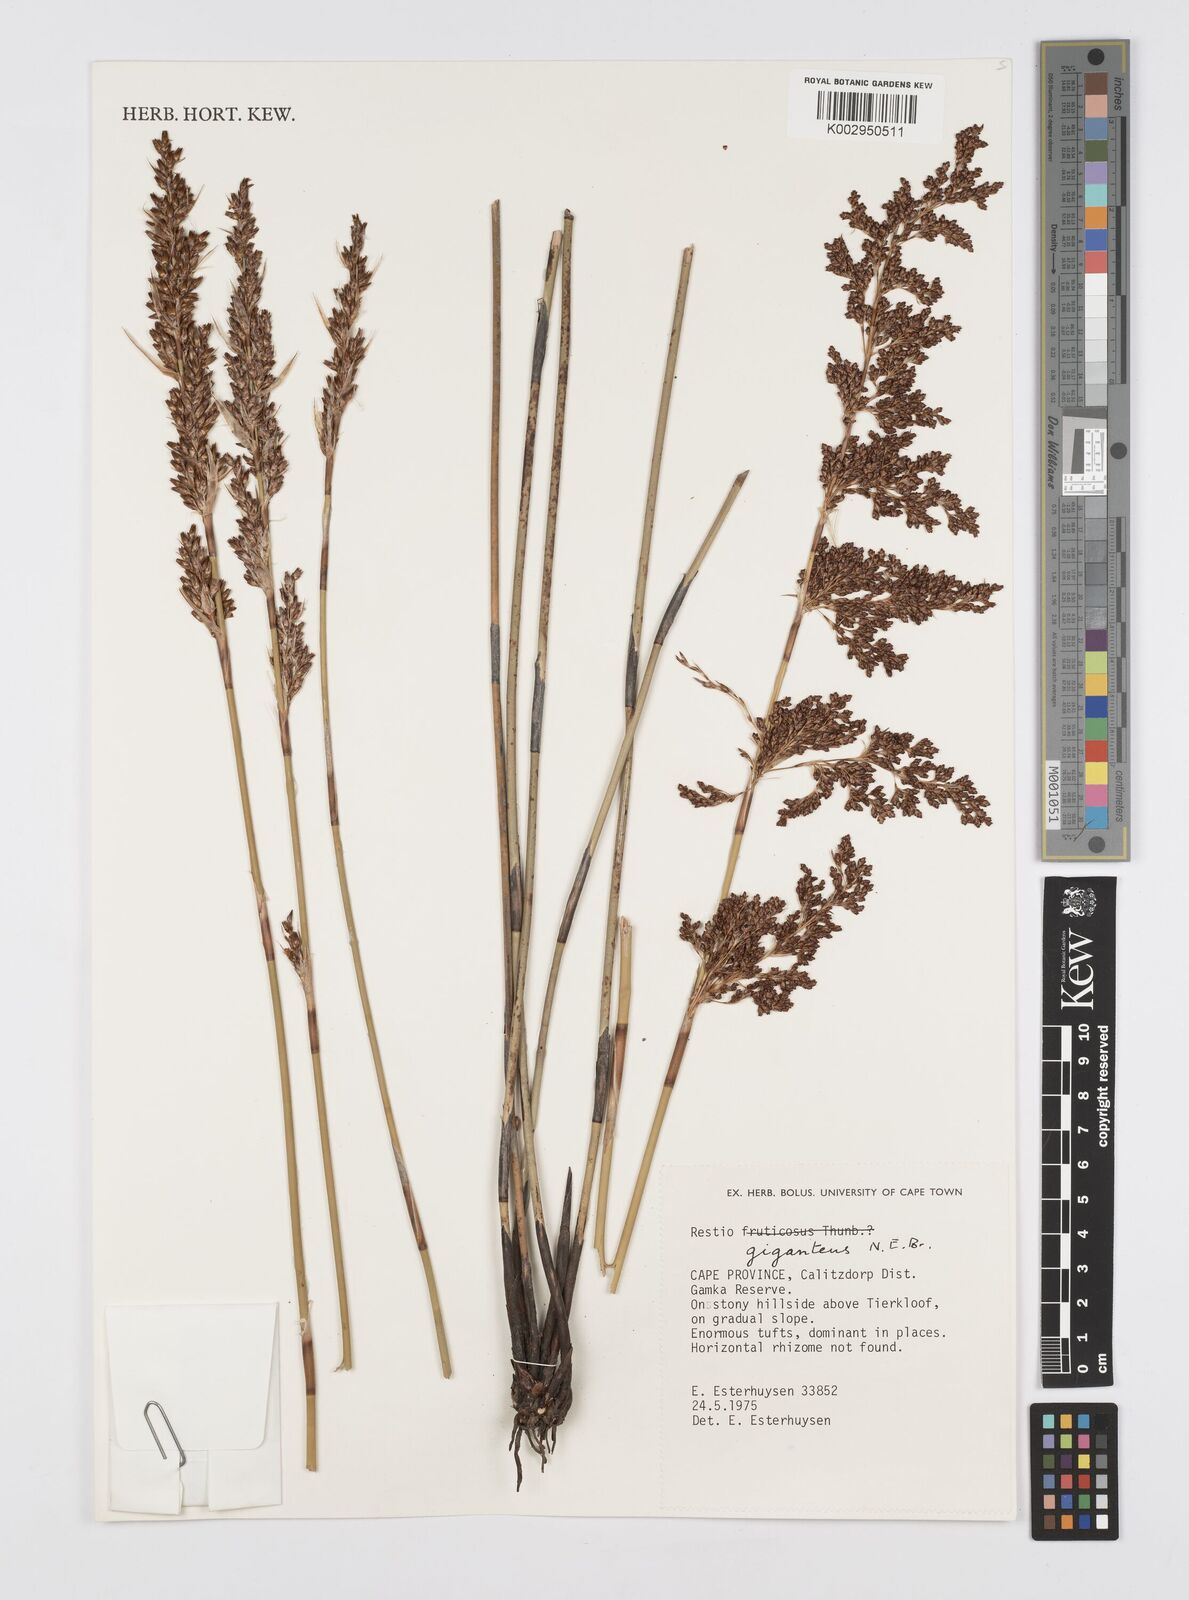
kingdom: Plantae
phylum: Tracheophyta
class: Liliopsida
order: Poales
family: Restionaceae
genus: Rhodocoma
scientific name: Rhodocoma gigantea
